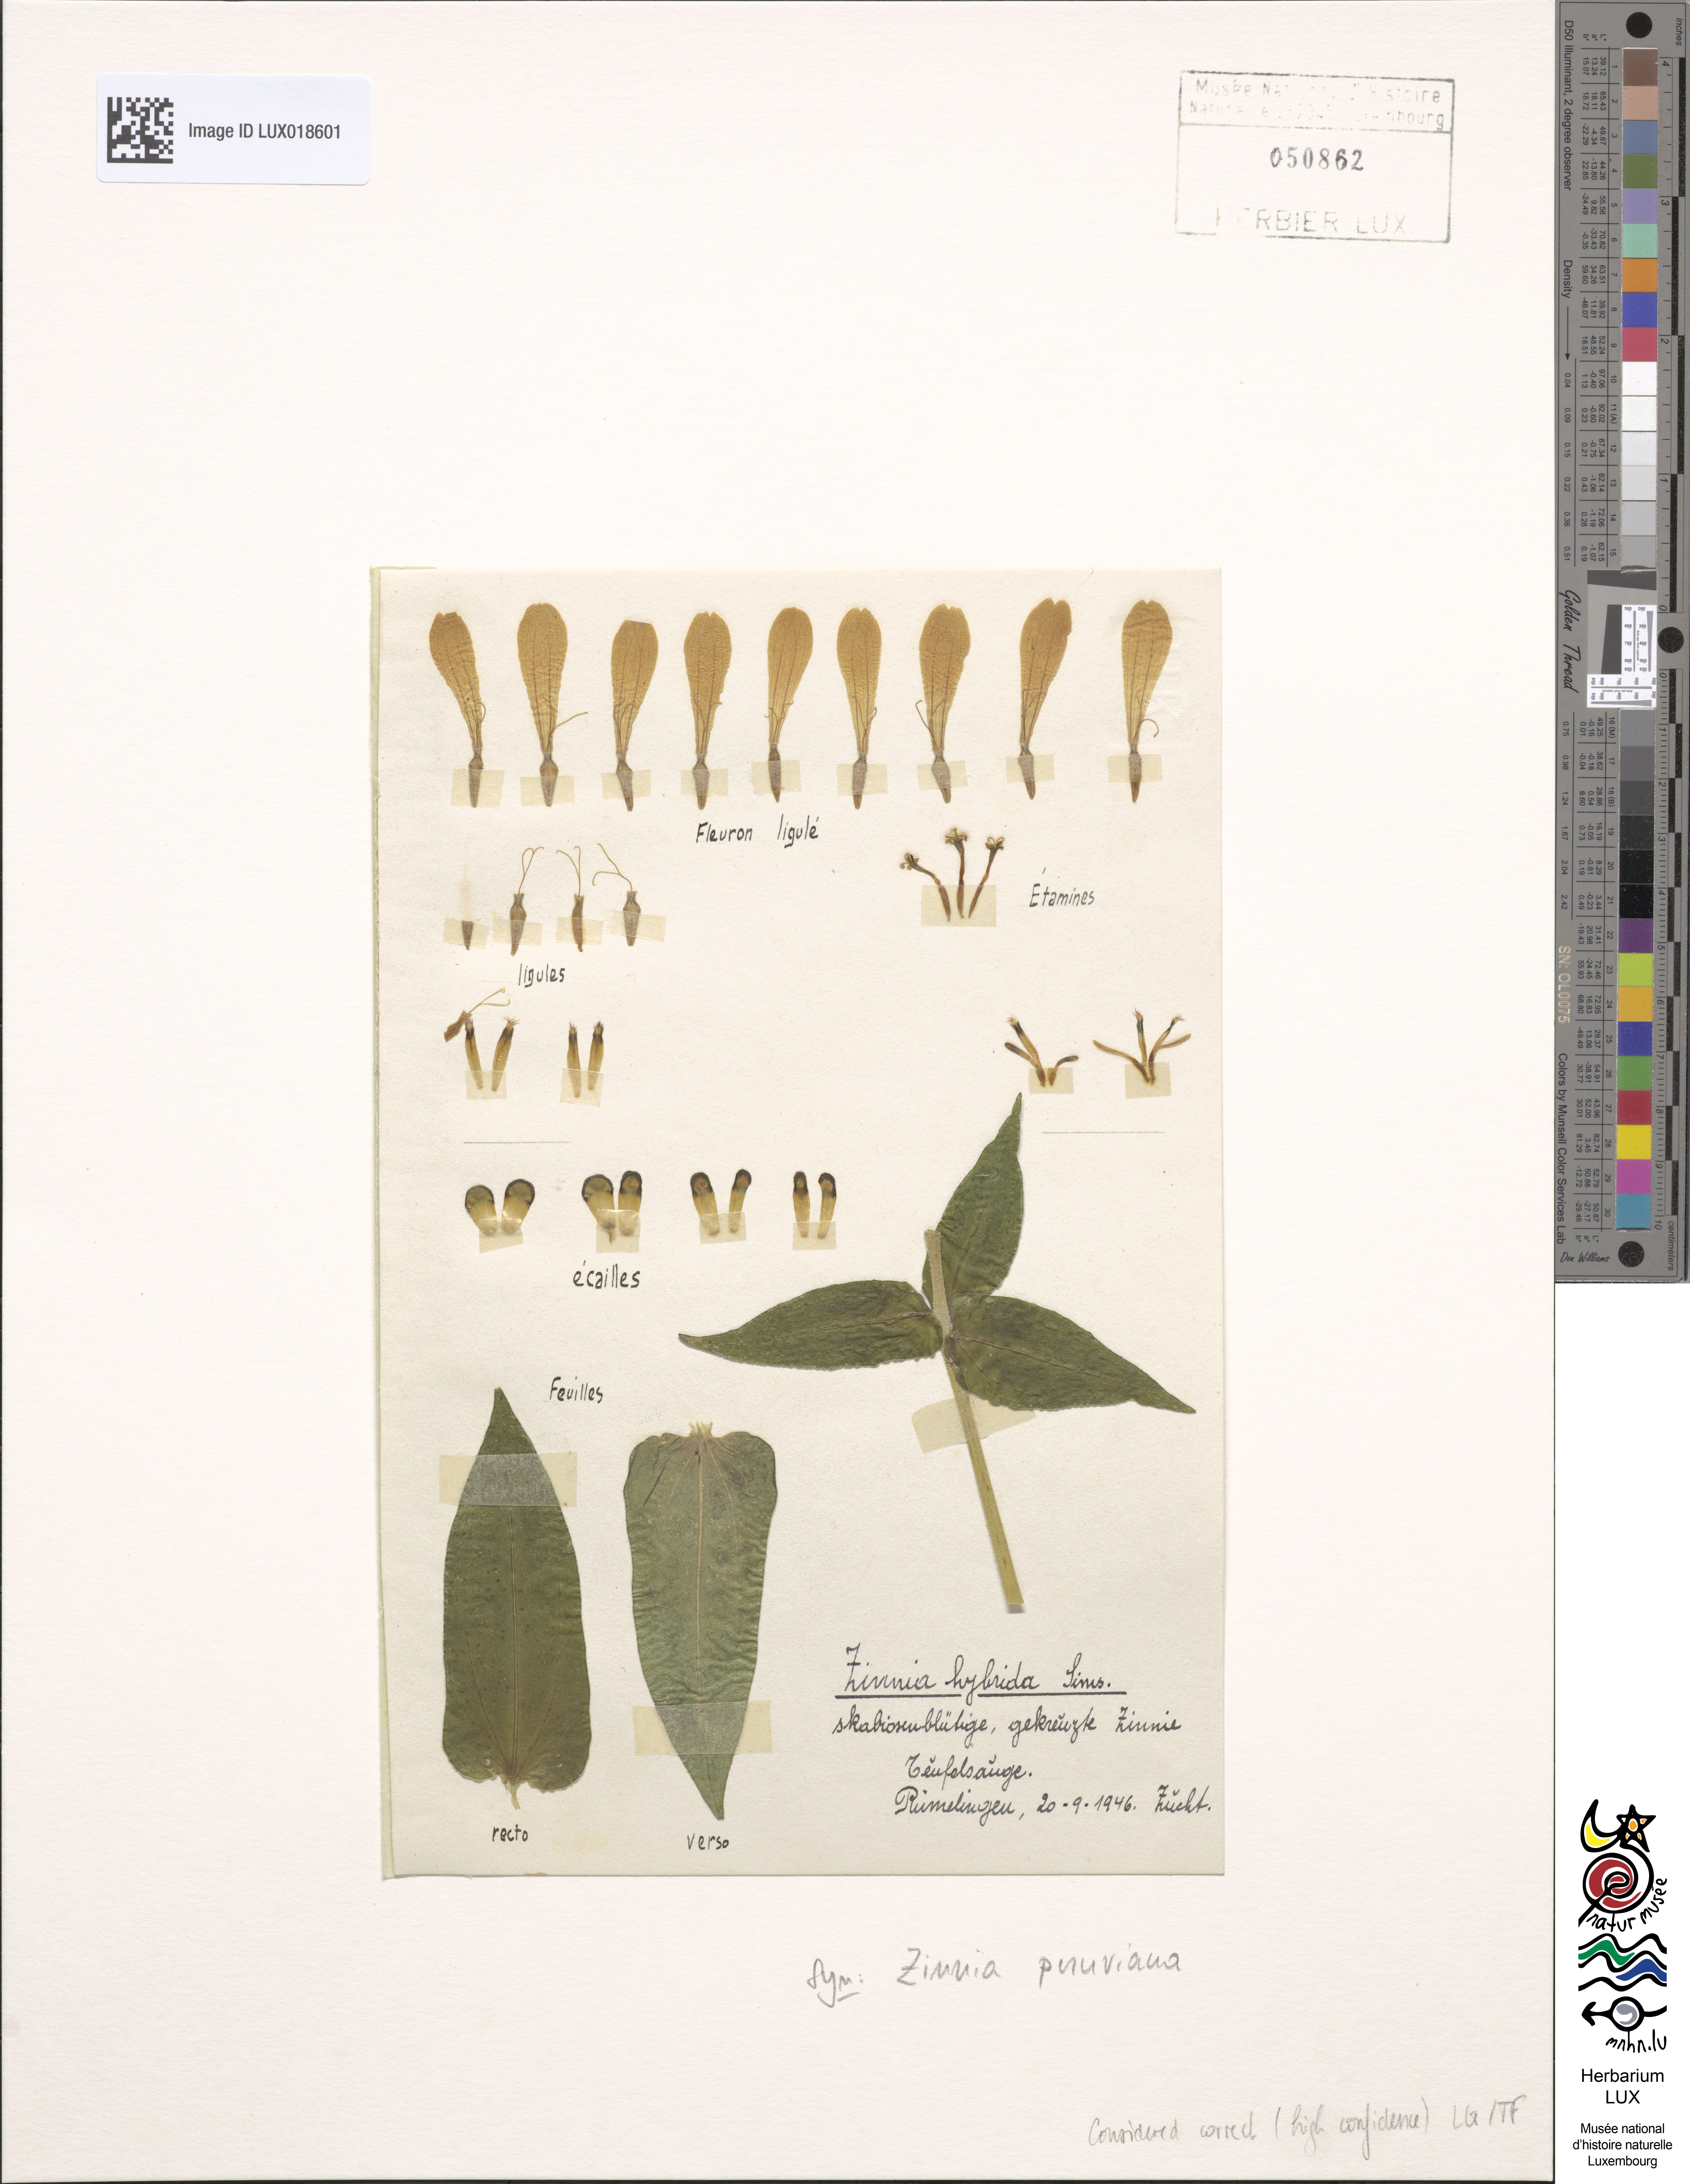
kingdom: Plantae
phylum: Tracheophyta
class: Magnoliopsida
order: Asterales
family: Asteraceae
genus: Zinnia
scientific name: Zinnia peruviana
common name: Peruvian zinnia
